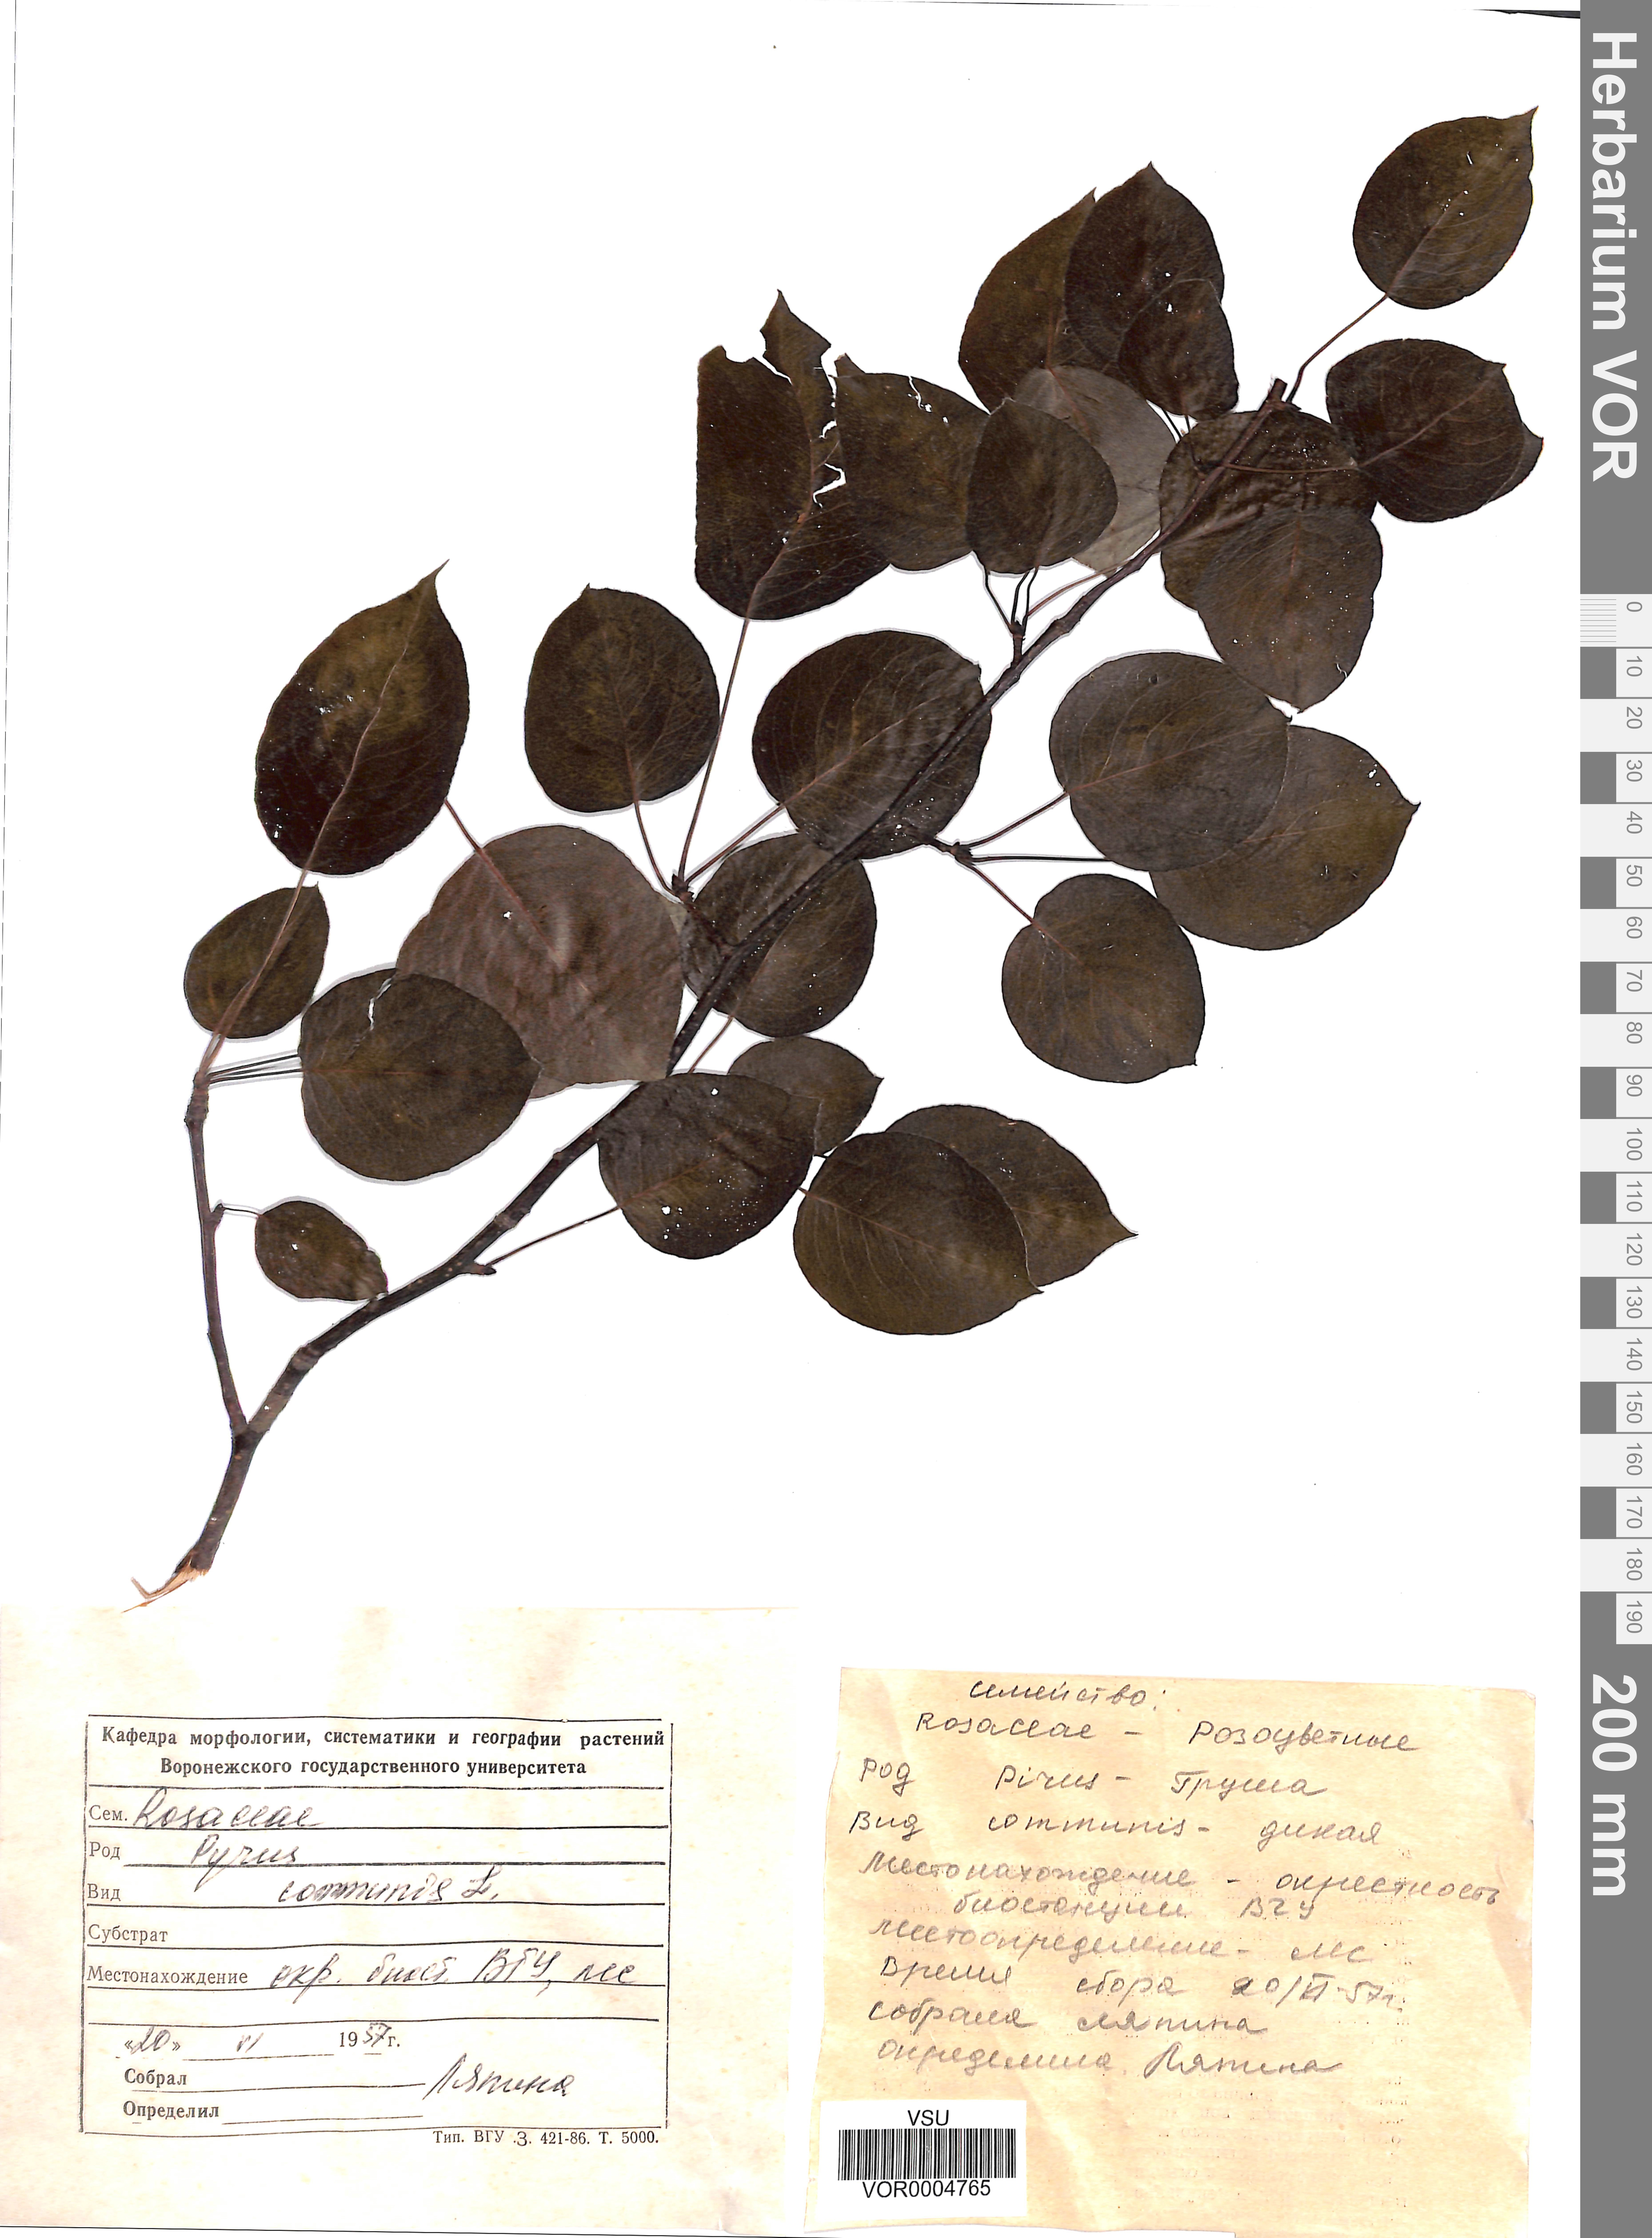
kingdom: Plantae
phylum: Tracheophyta
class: Magnoliopsida
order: Rosales
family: Rosaceae
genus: Pyrus
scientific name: Pyrus communis
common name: Pear
